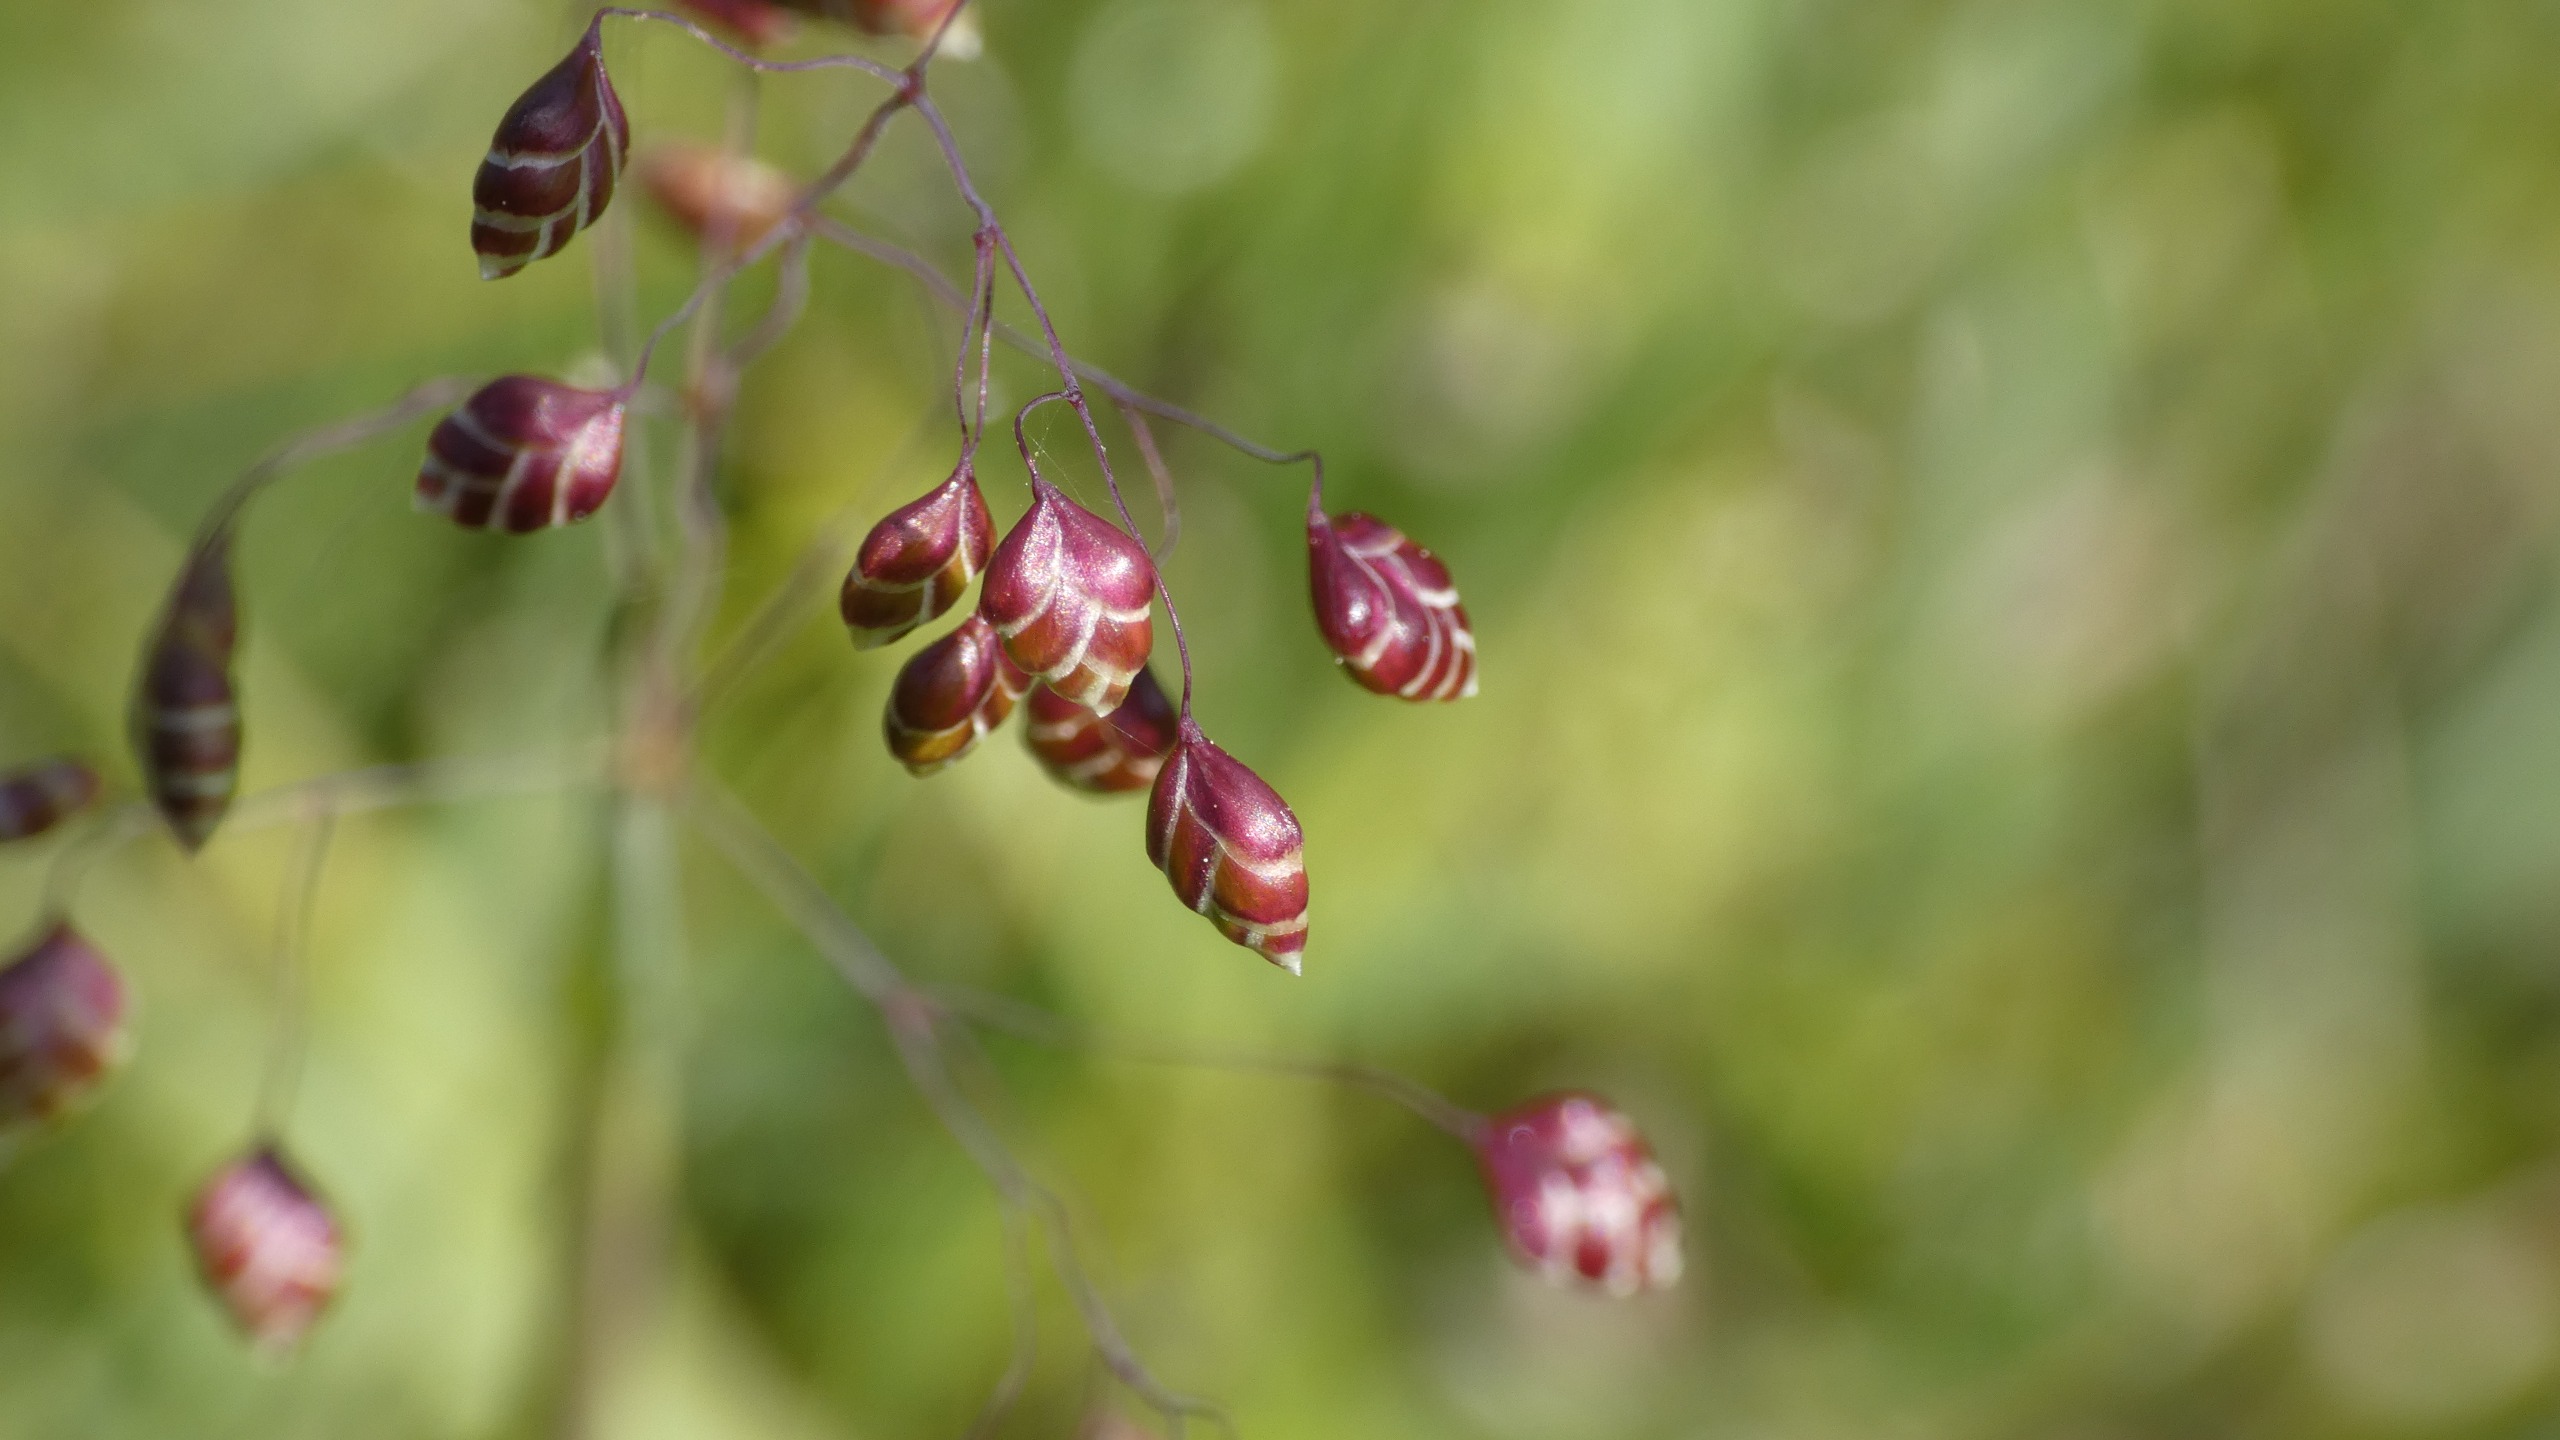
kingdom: Plantae
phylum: Tracheophyta
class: Liliopsida
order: Poales
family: Poaceae
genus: Briza
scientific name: Briza media
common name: Hjertegræs
